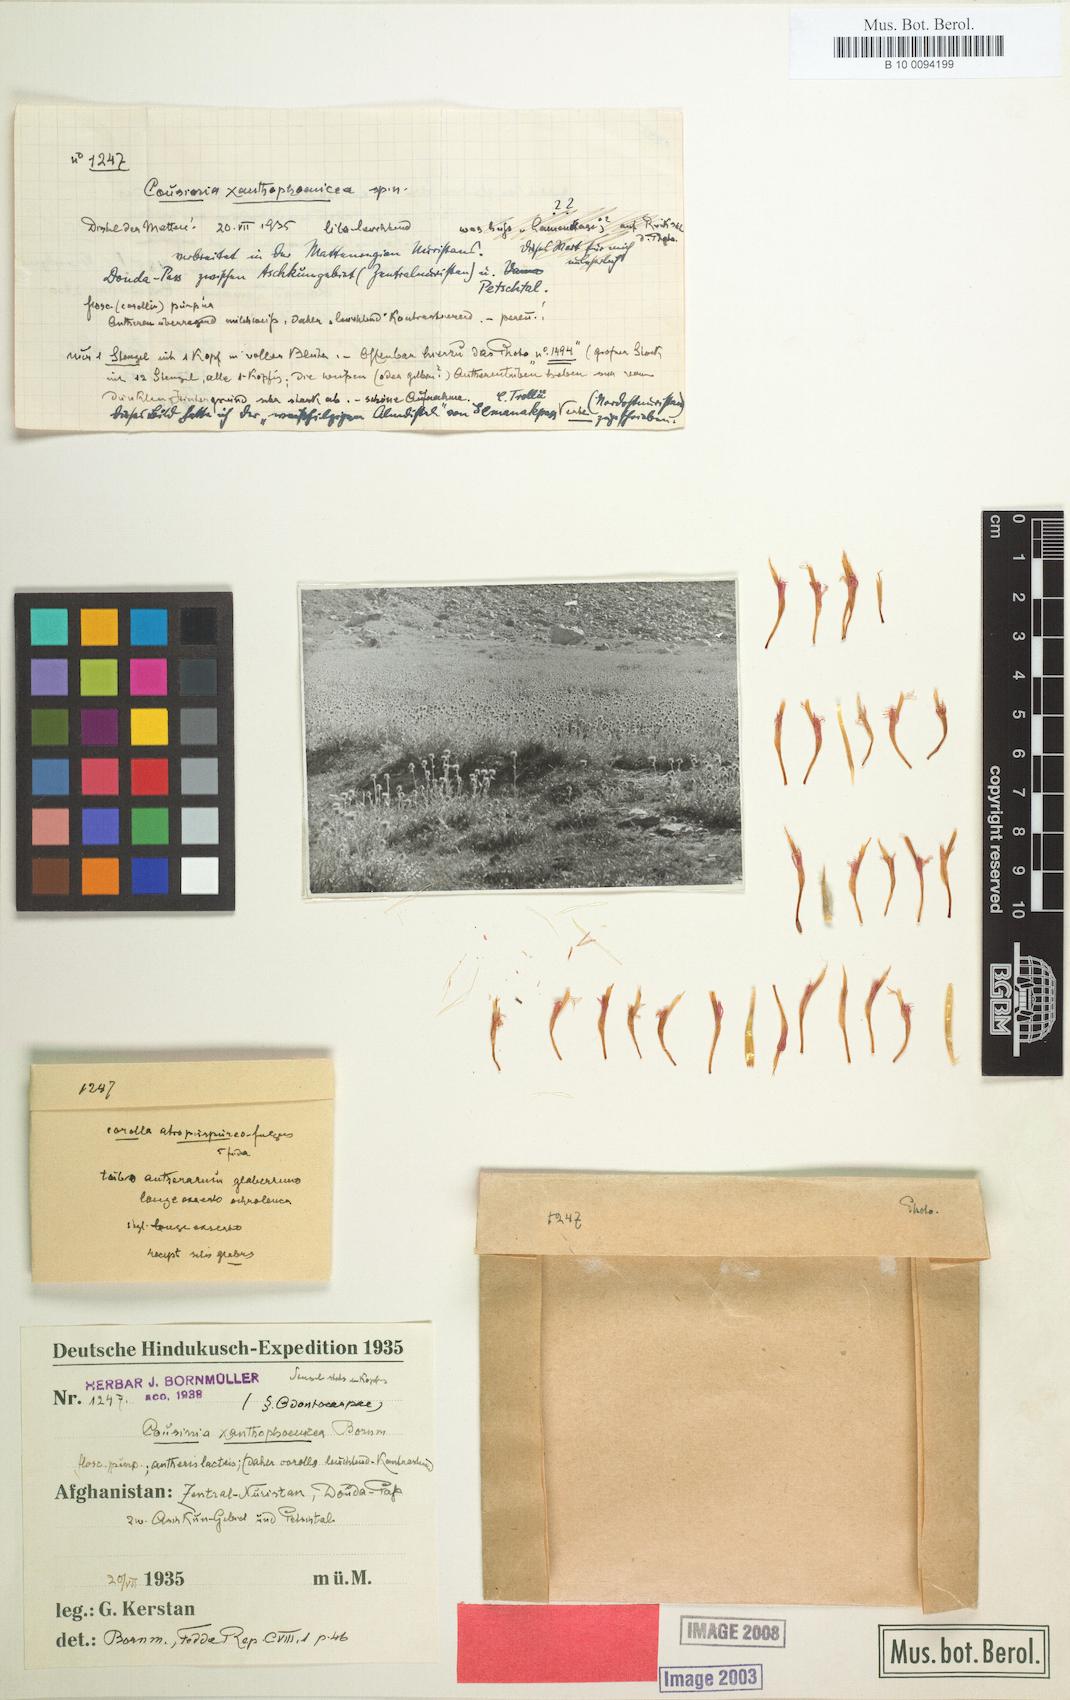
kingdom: Plantae
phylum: Tracheophyta
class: Magnoliopsida
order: Asterales
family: Asteraceae
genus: Cousinia
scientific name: Cousinia thomsonii
